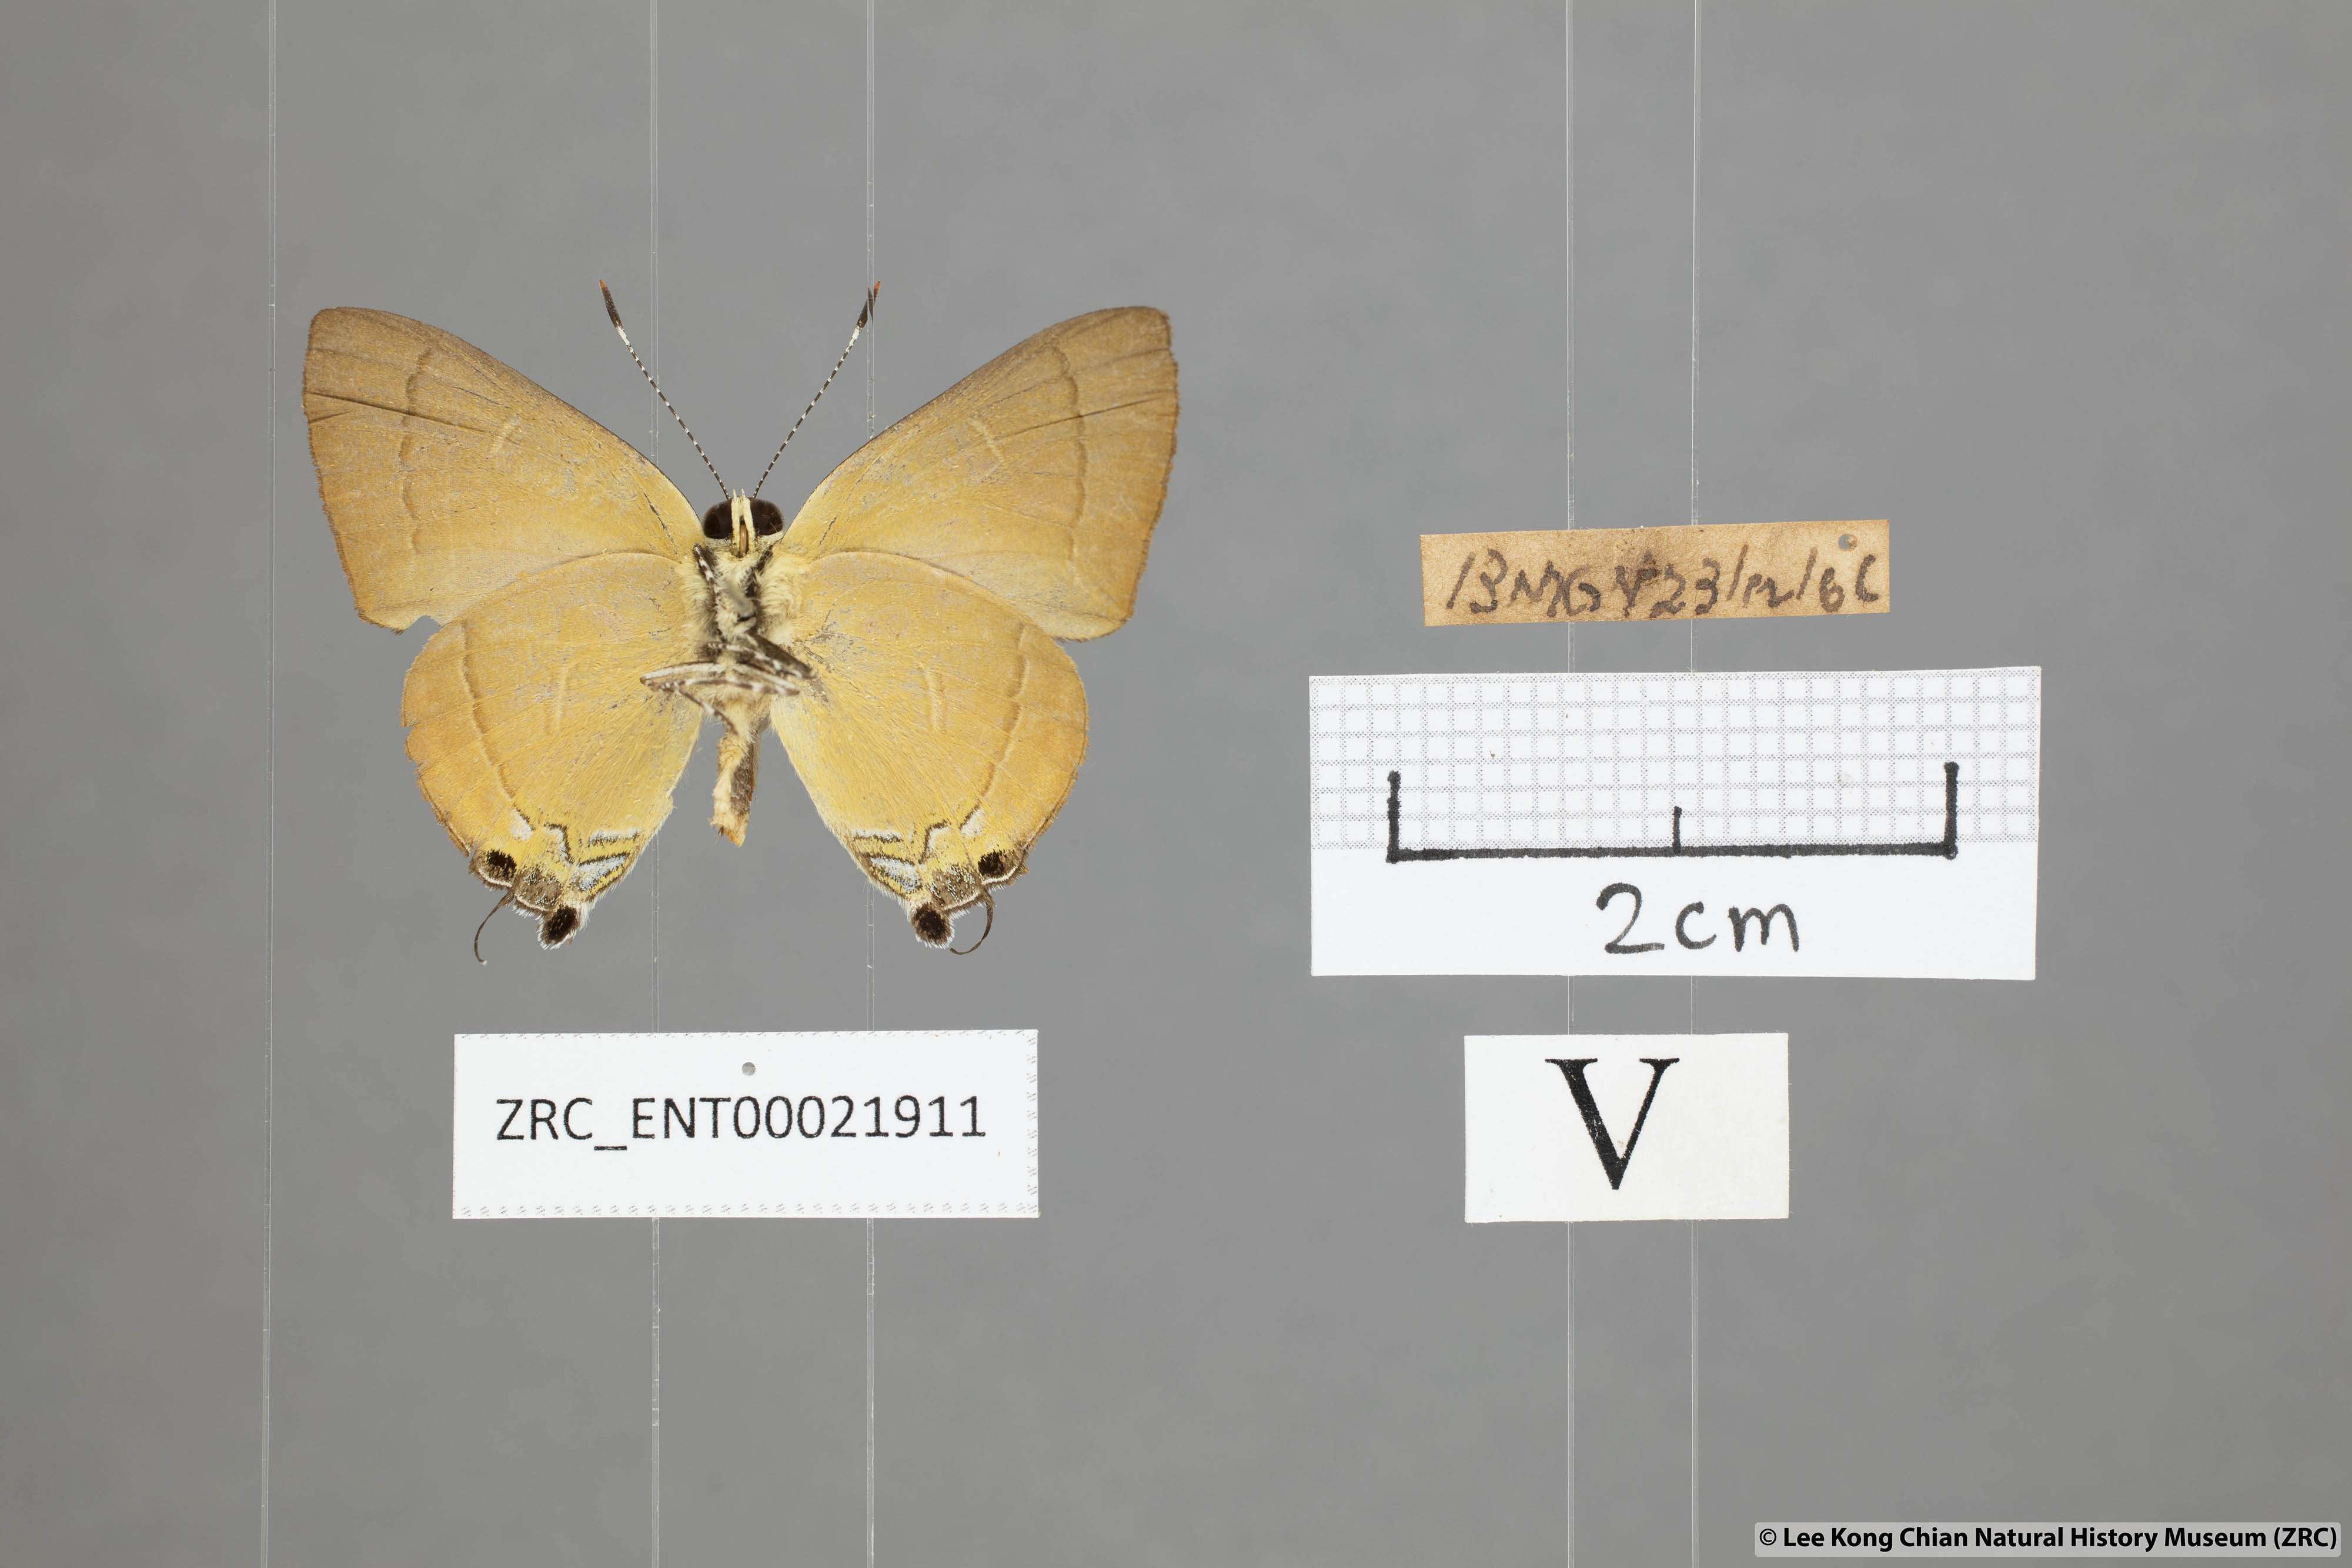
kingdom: Animalia
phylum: Arthropoda
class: Insecta
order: Lepidoptera
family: Lycaenidae
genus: Rapala
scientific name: Rapala suffusa
